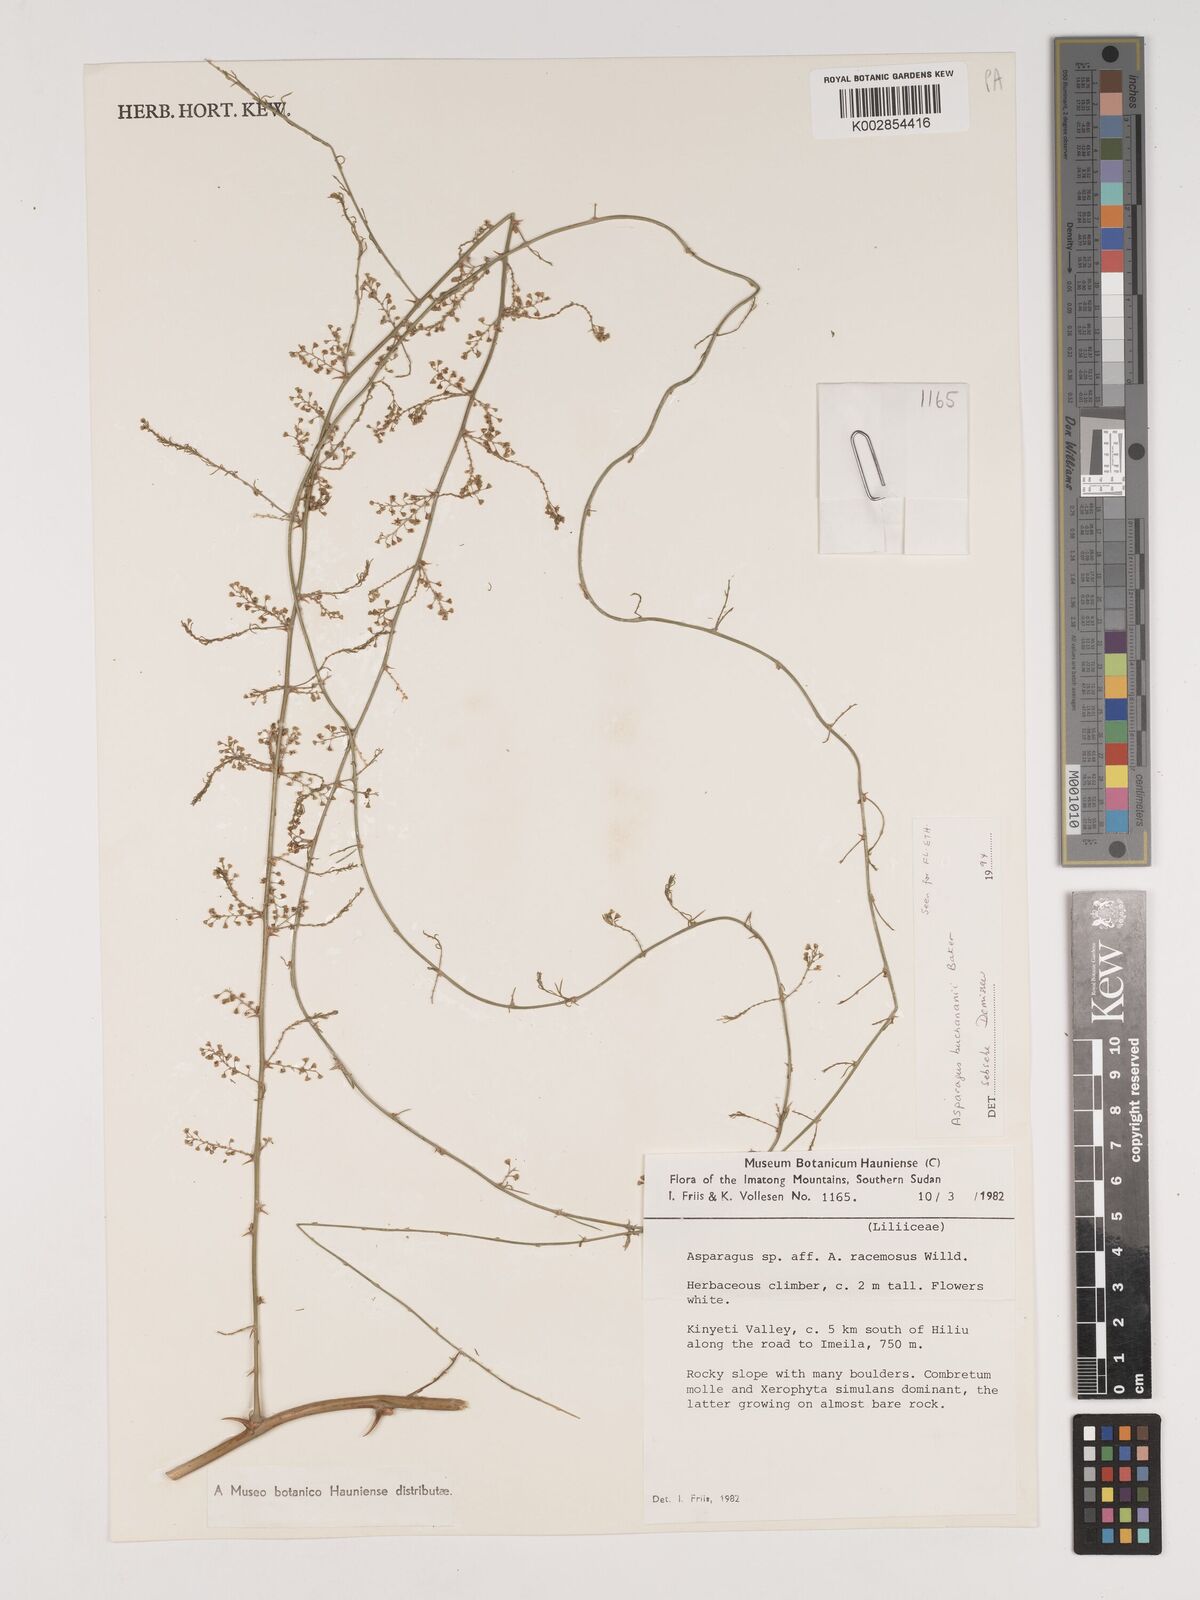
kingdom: Plantae
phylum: Tracheophyta
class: Liliopsida
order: Asparagales
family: Asparagaceae
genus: Asparagus
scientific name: Asparagus buchananii
